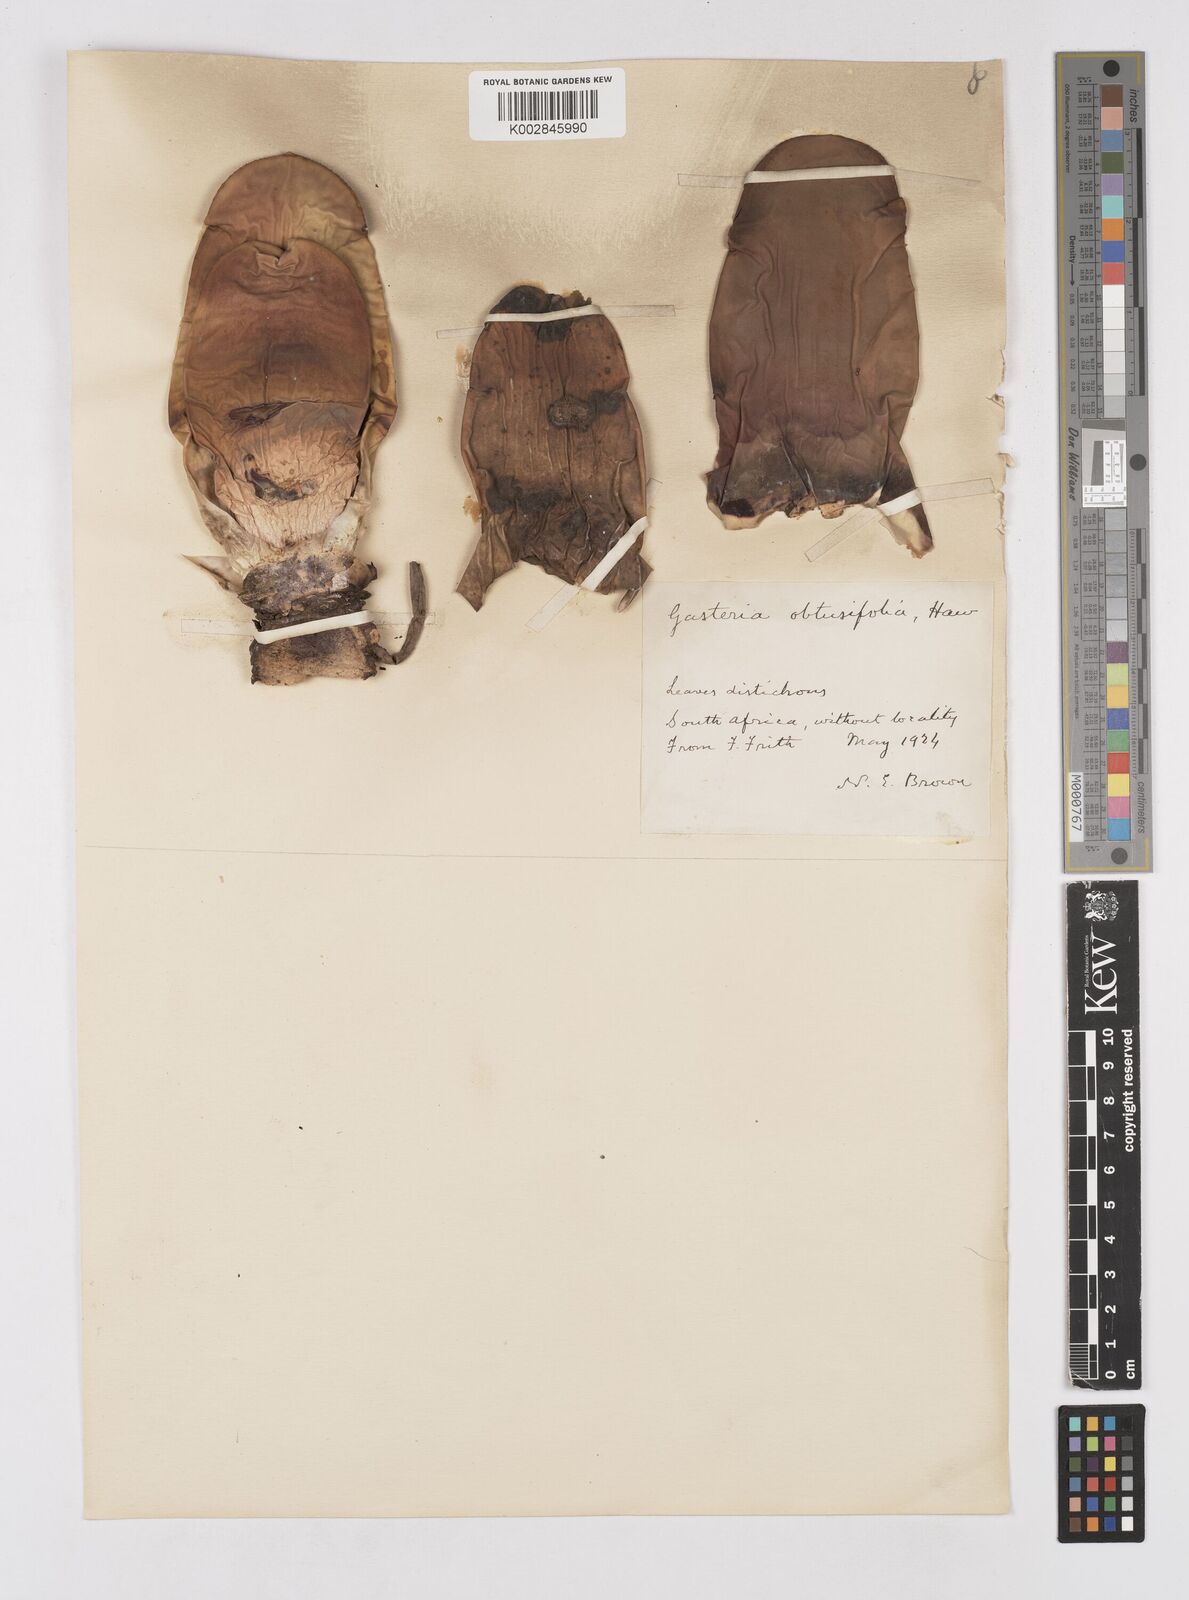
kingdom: Plantae
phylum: Tracheophyta
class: Liliopsida
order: Asparagales
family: Asphodelaceae
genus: Gasteria
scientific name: Gasteria disticha
